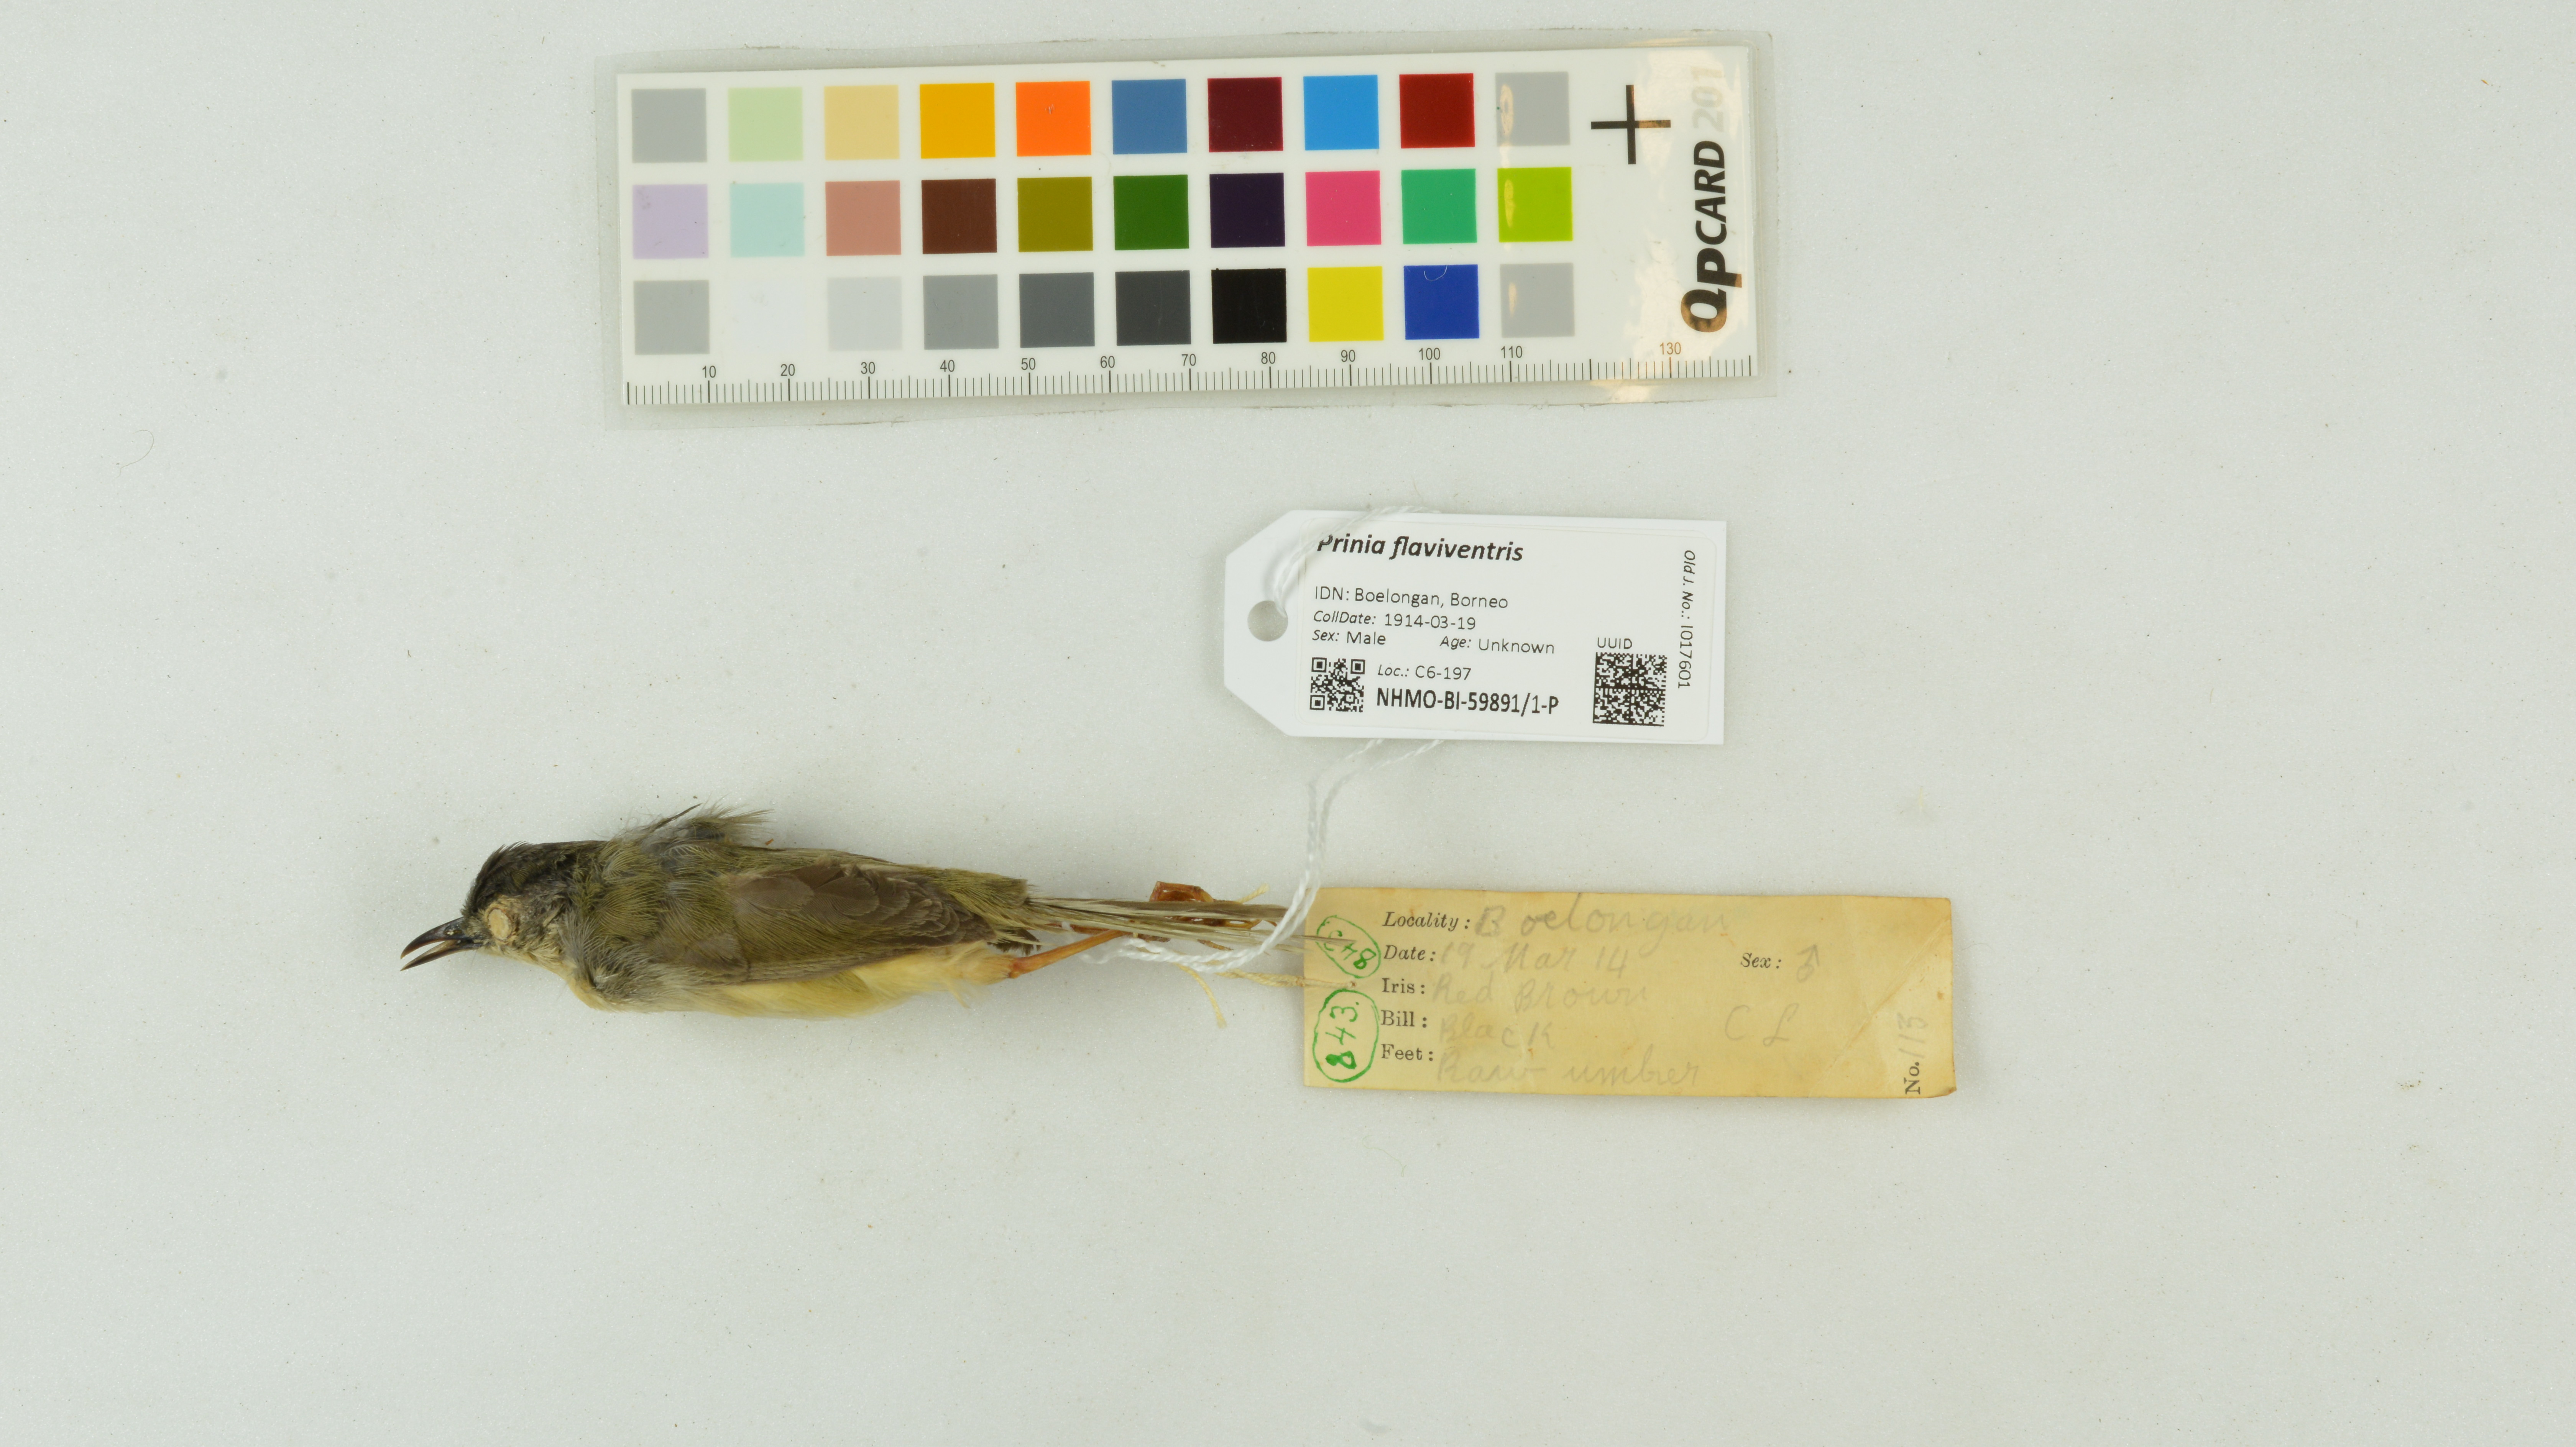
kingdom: Animalia
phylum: Chordata
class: Aves
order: Passeriformes
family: Cisticolidae
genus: Prinia
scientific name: Prinia flaviventris
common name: Yellow-bellied prinia
